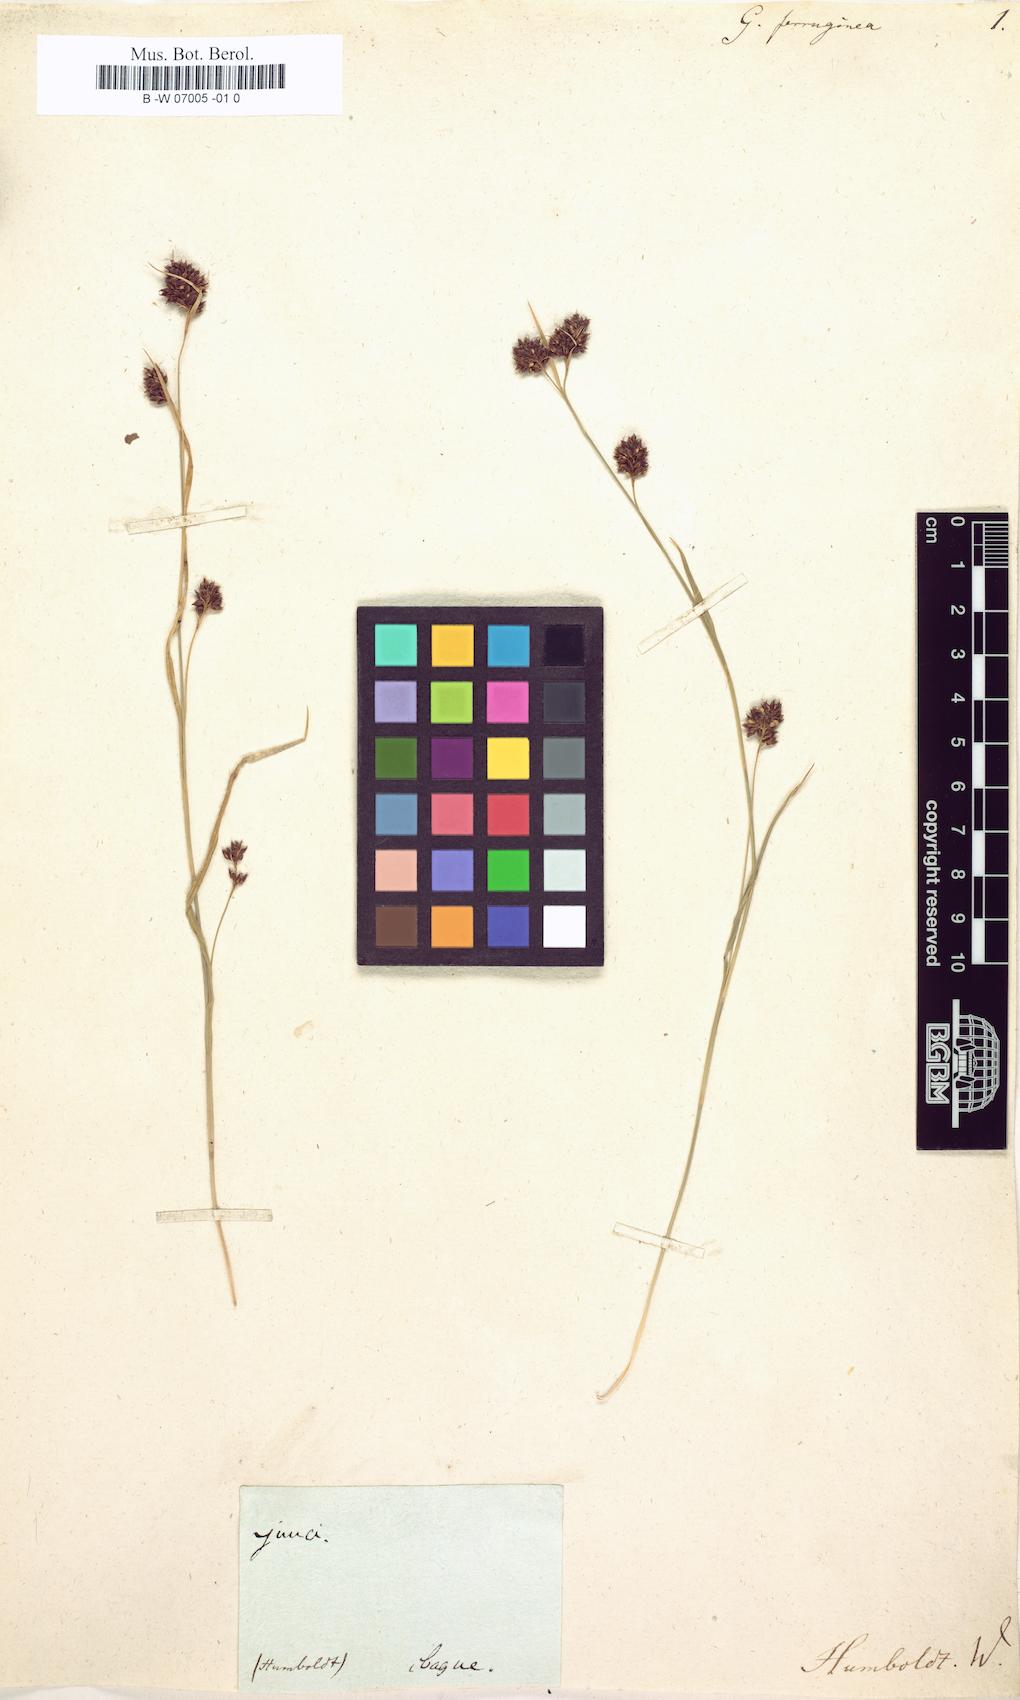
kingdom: Plantae
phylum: Tracheophyta
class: Liliopsida
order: Poales
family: Cyperaceae
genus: Gahnia
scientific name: Gahnia
